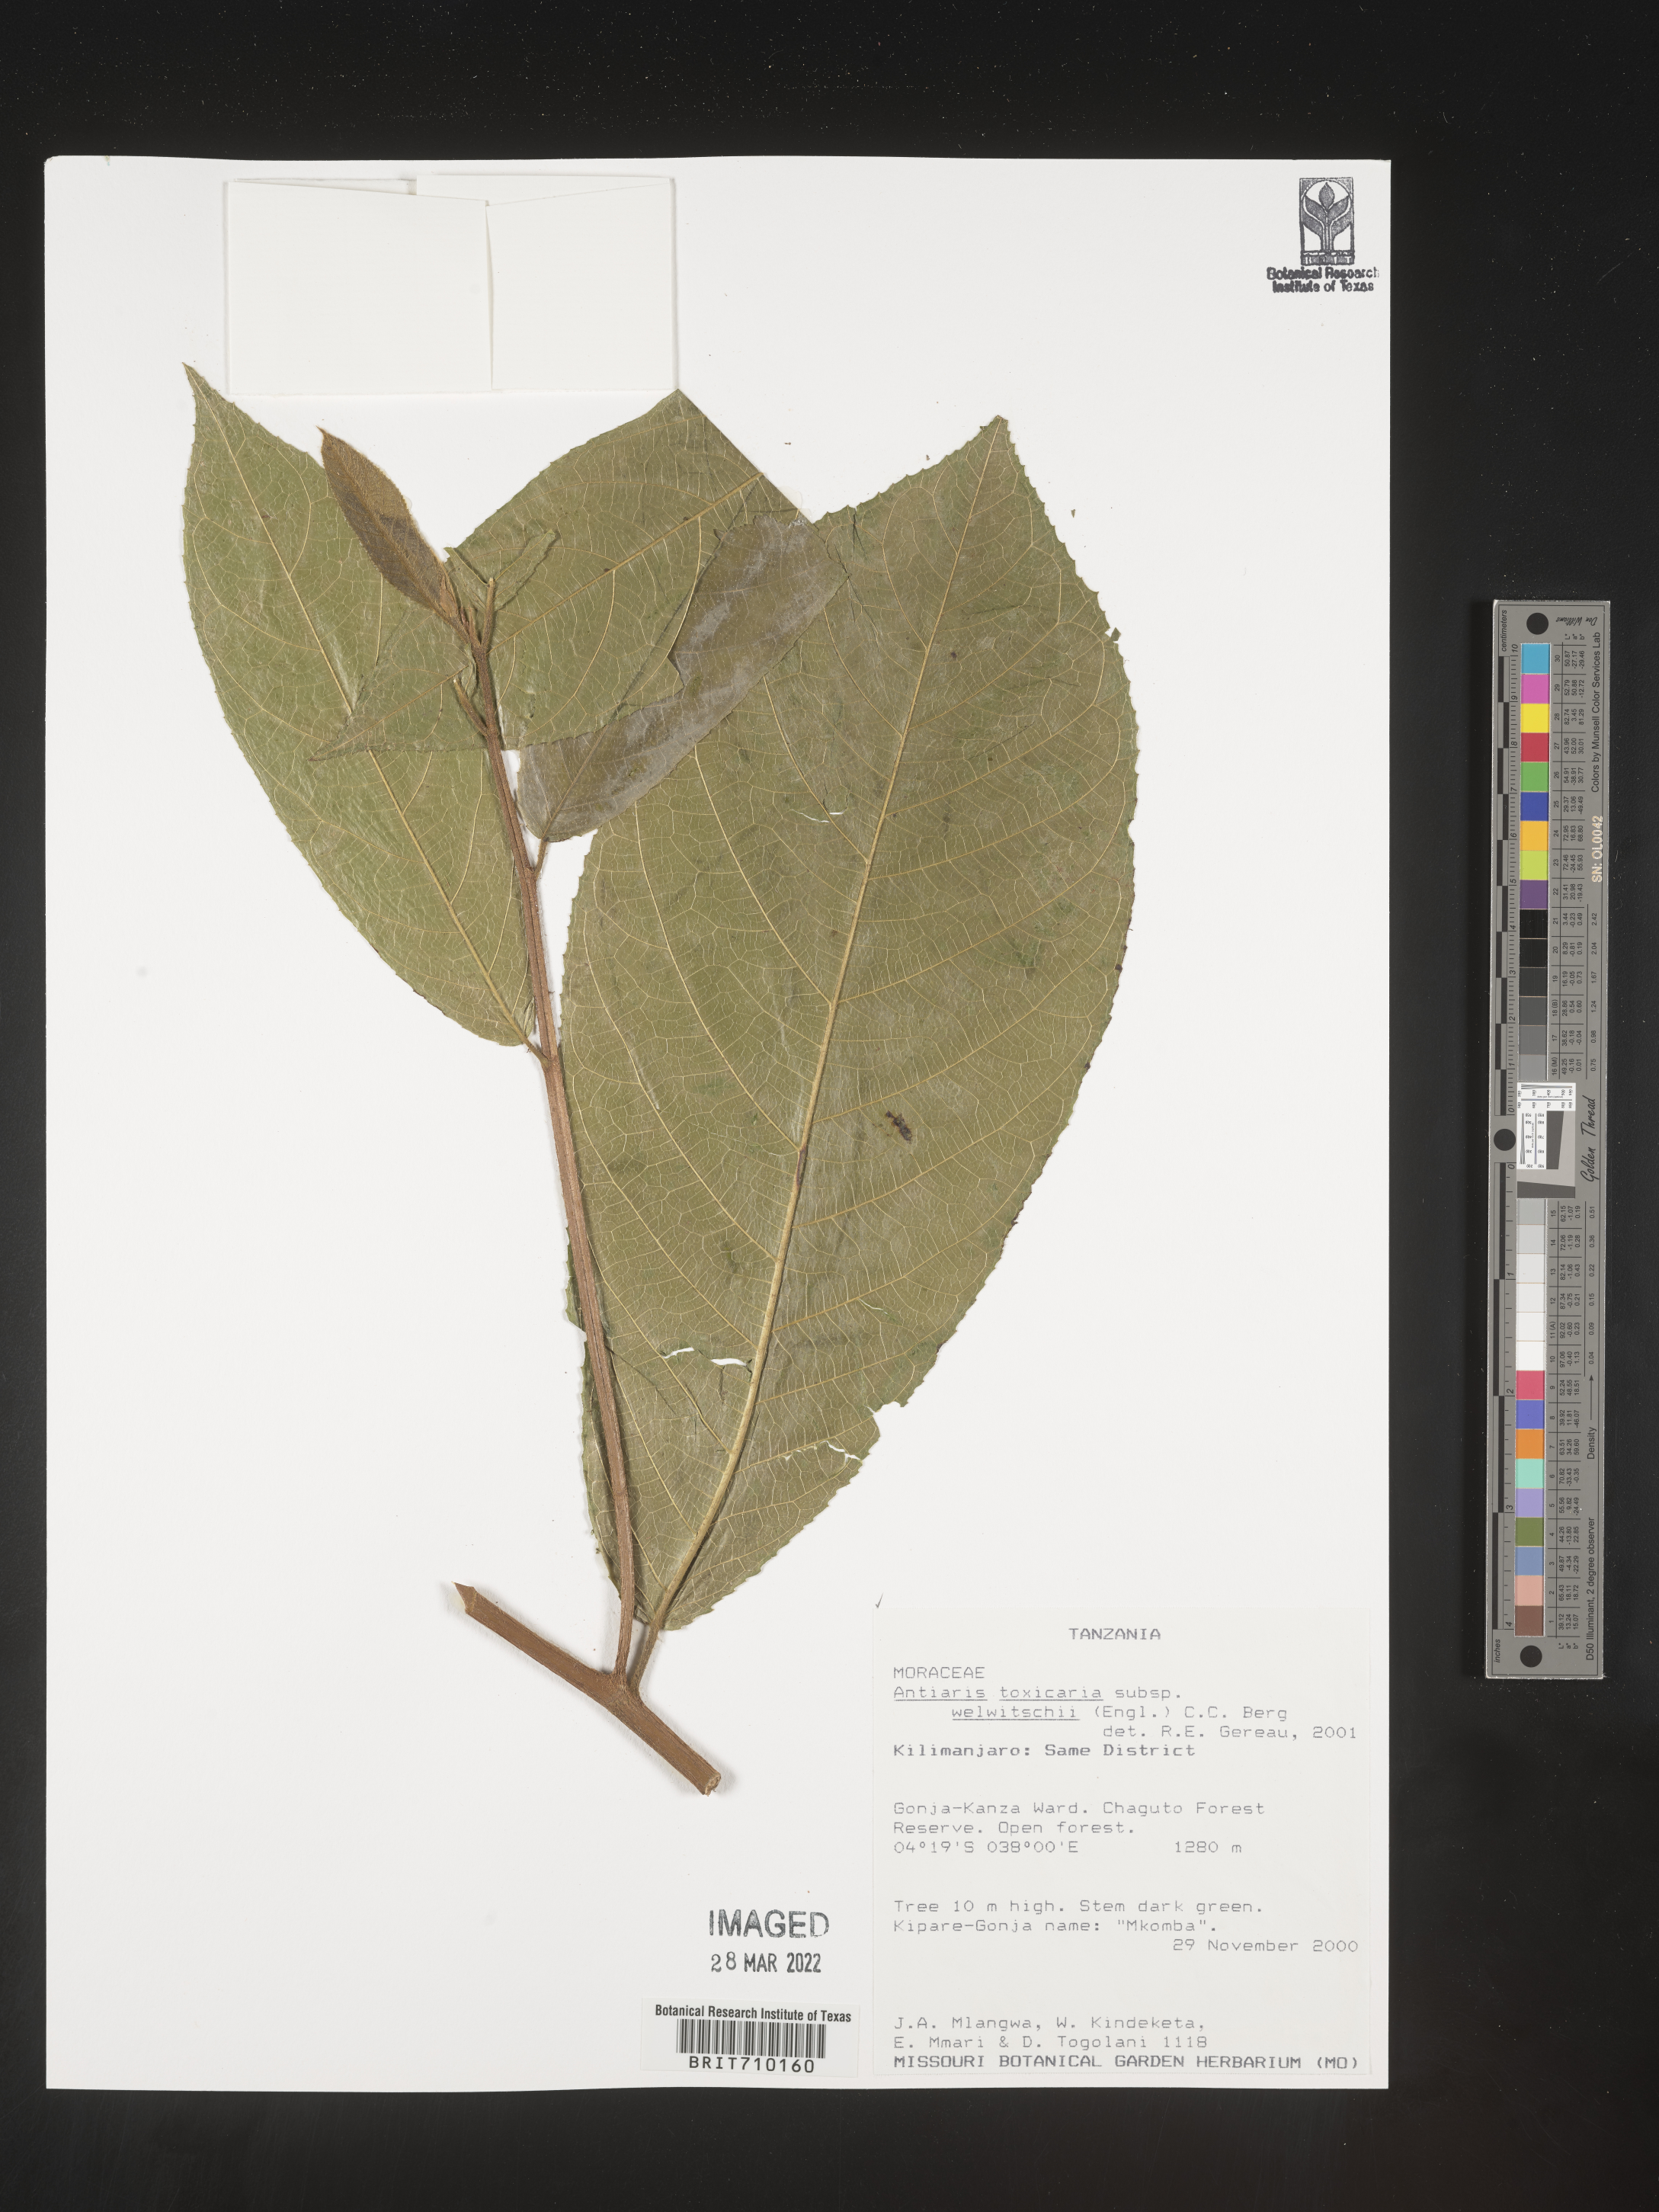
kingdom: Plantae
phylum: Tracheophyta
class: Magnoliopsida
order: Rosales
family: Moraceae
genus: Antiaris
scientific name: Antiaris
